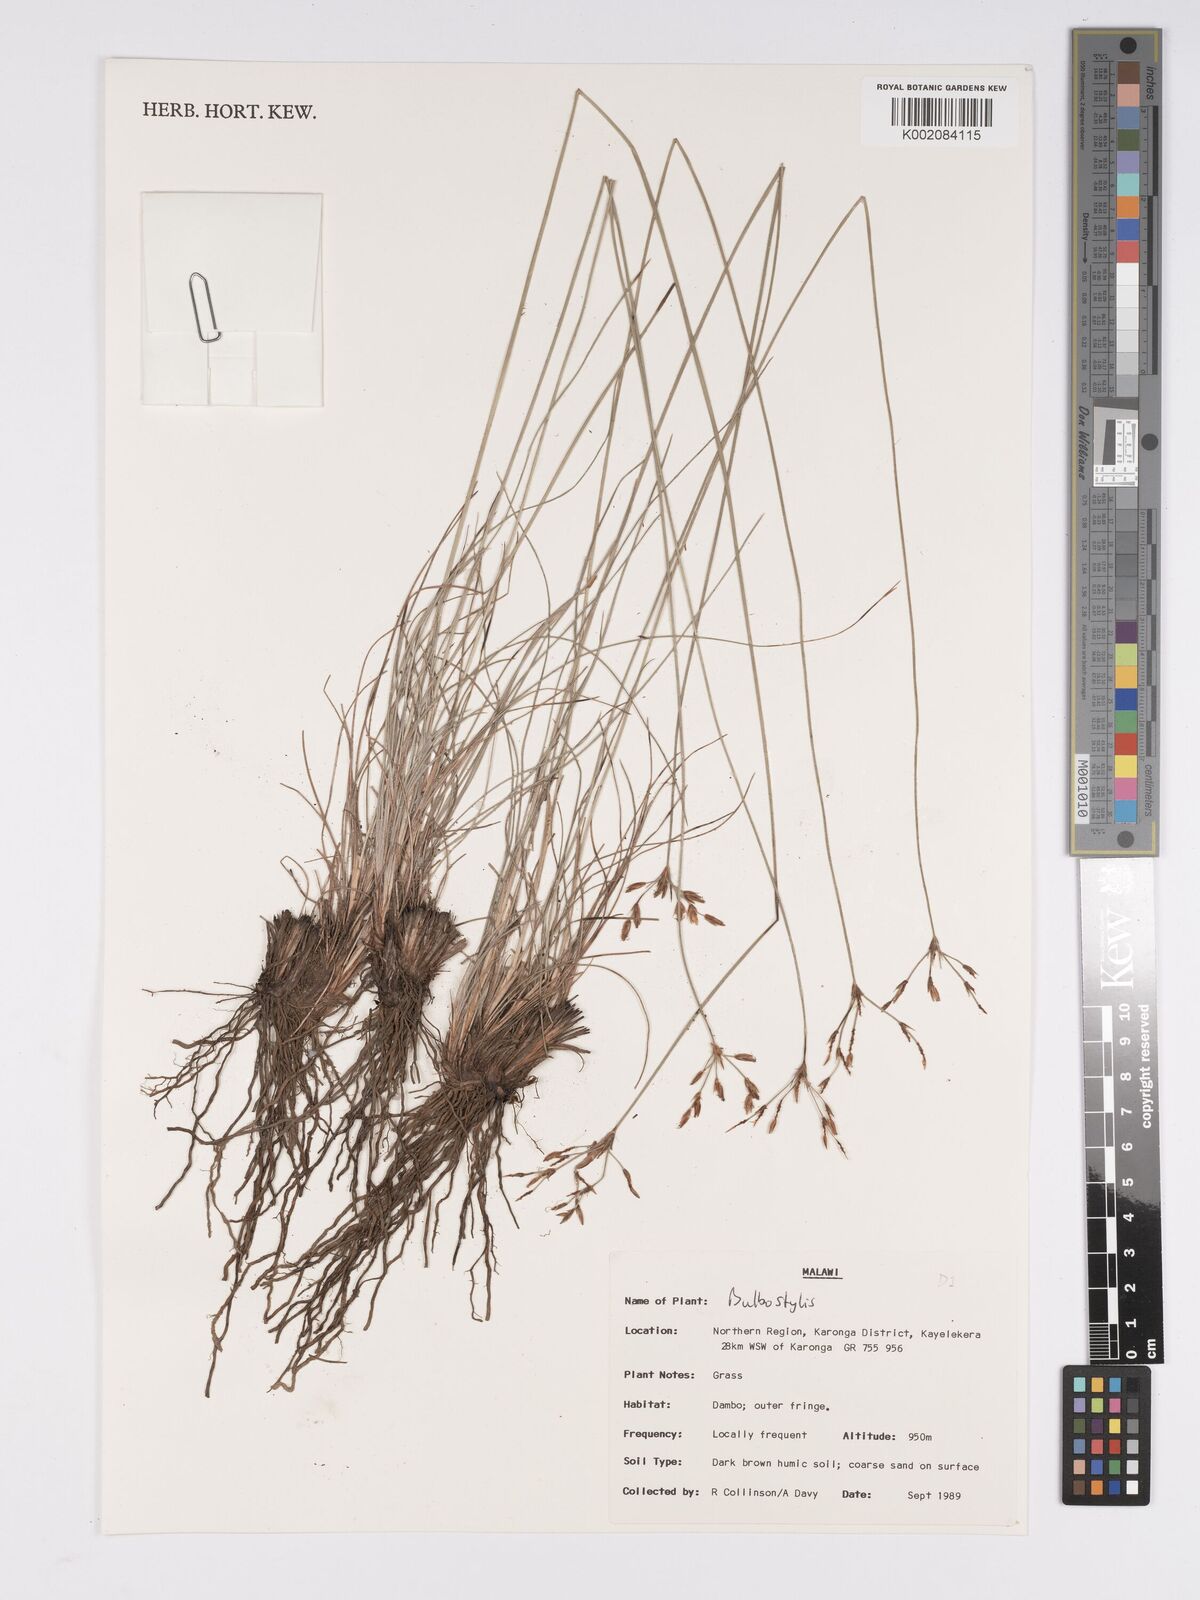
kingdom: Plantae
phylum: Tracheophyta
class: Liliopsida
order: Poales
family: Cyperaceae
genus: Bulbostylis
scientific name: Bulbostylis
